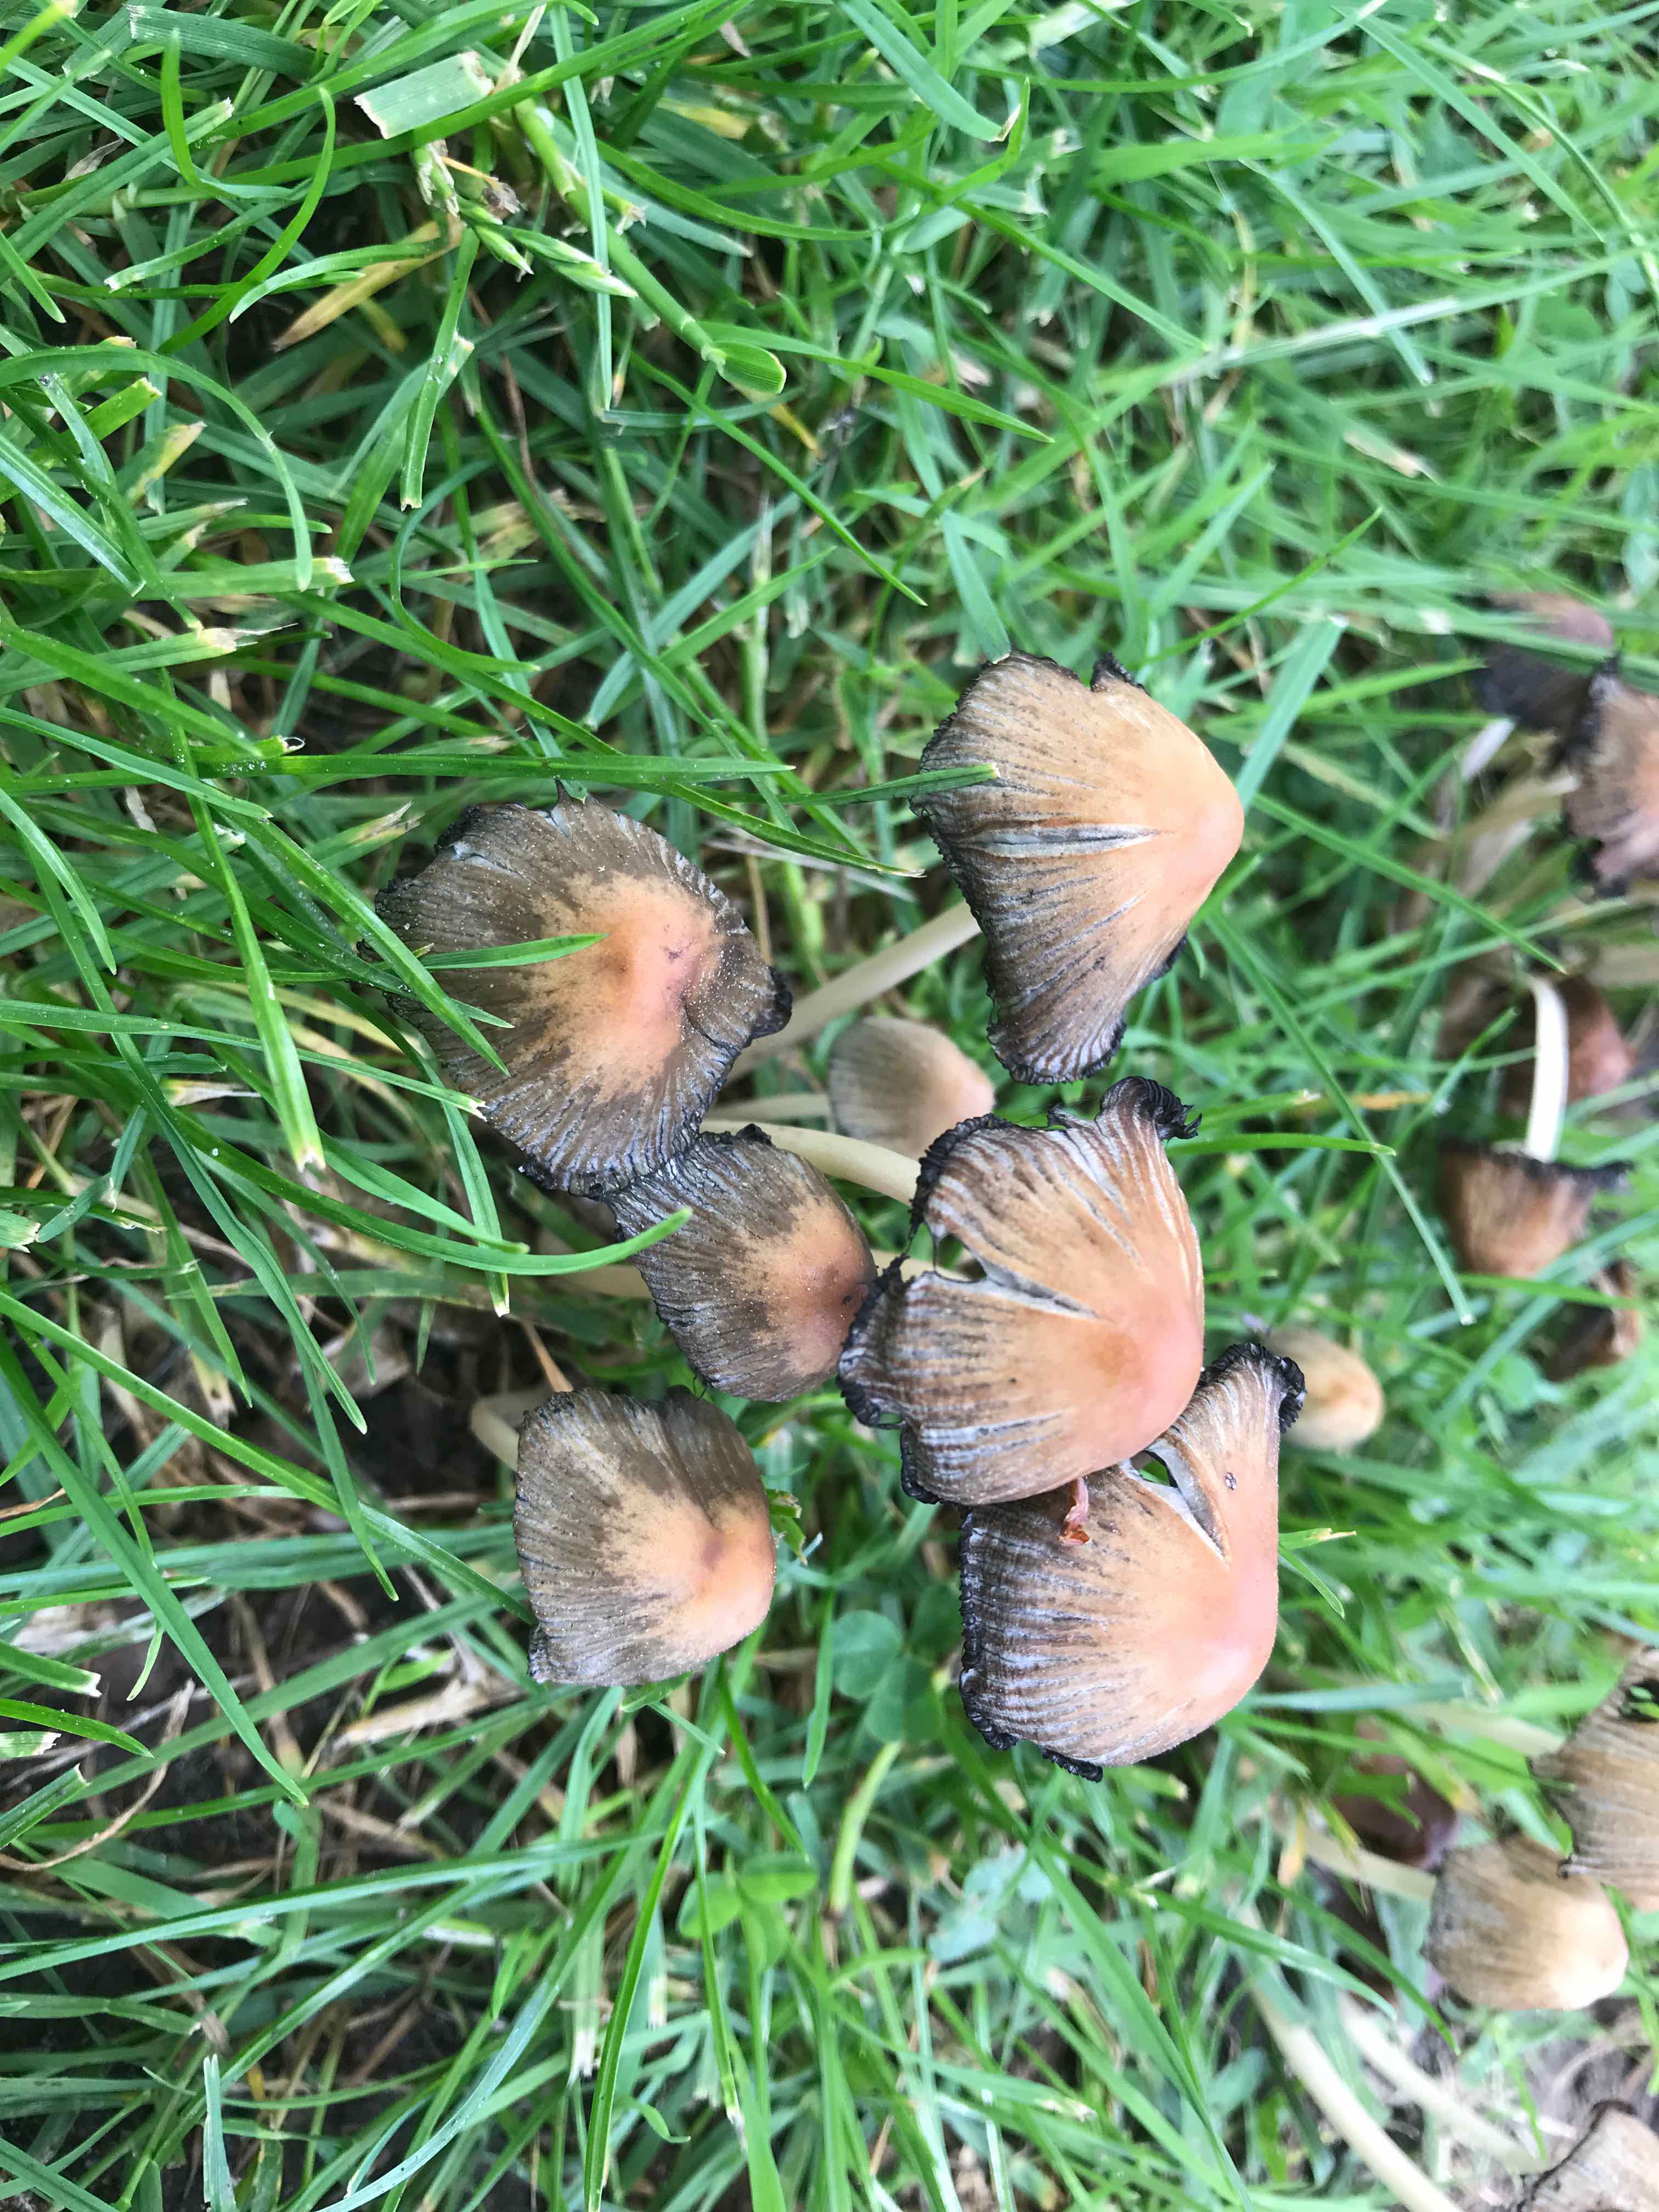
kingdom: Fungi
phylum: Basidiomycota
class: Agaricomycetes
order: Agaricales
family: Psathyrellaceae
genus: Coprinellus
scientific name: Coprinellus micaceus
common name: glimmer-blækhat
